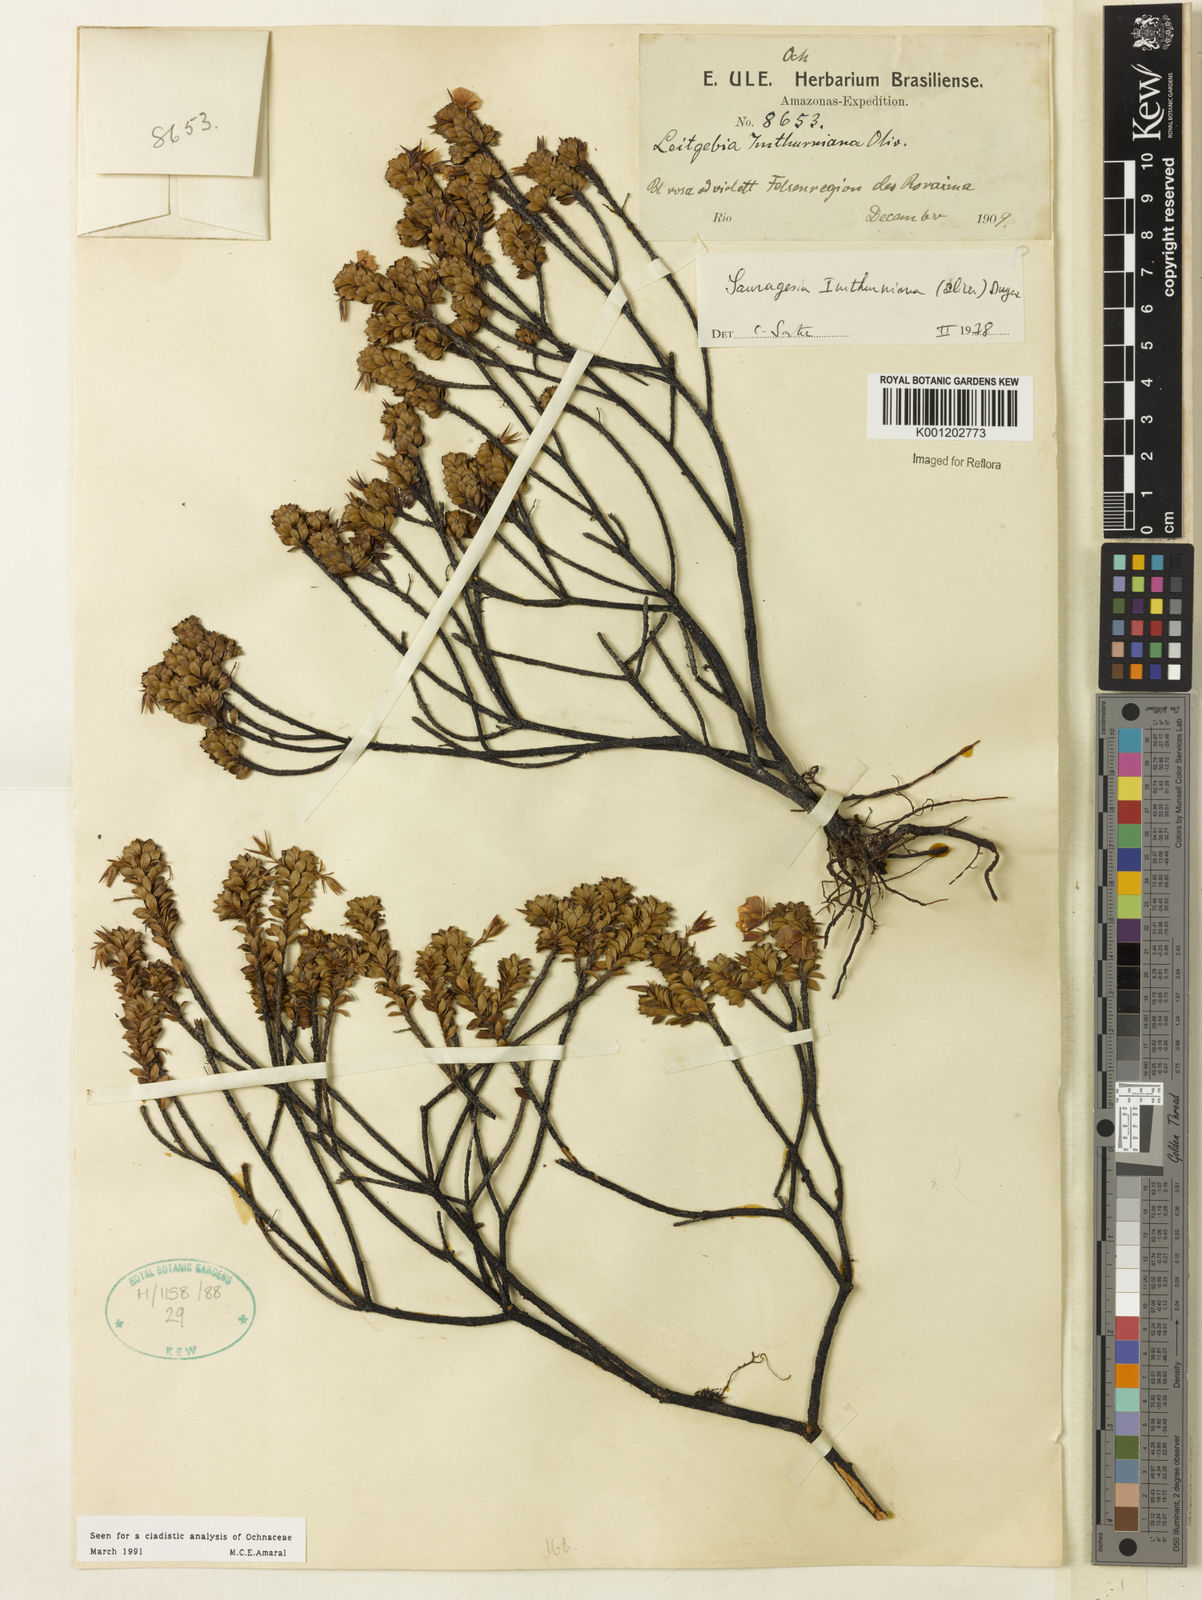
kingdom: Plantae
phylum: Tracheophyta
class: Magnoliopsida
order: Malpighiales
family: Ochnaceae
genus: Sauvagesia
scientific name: Sauvagesia imthurniana
